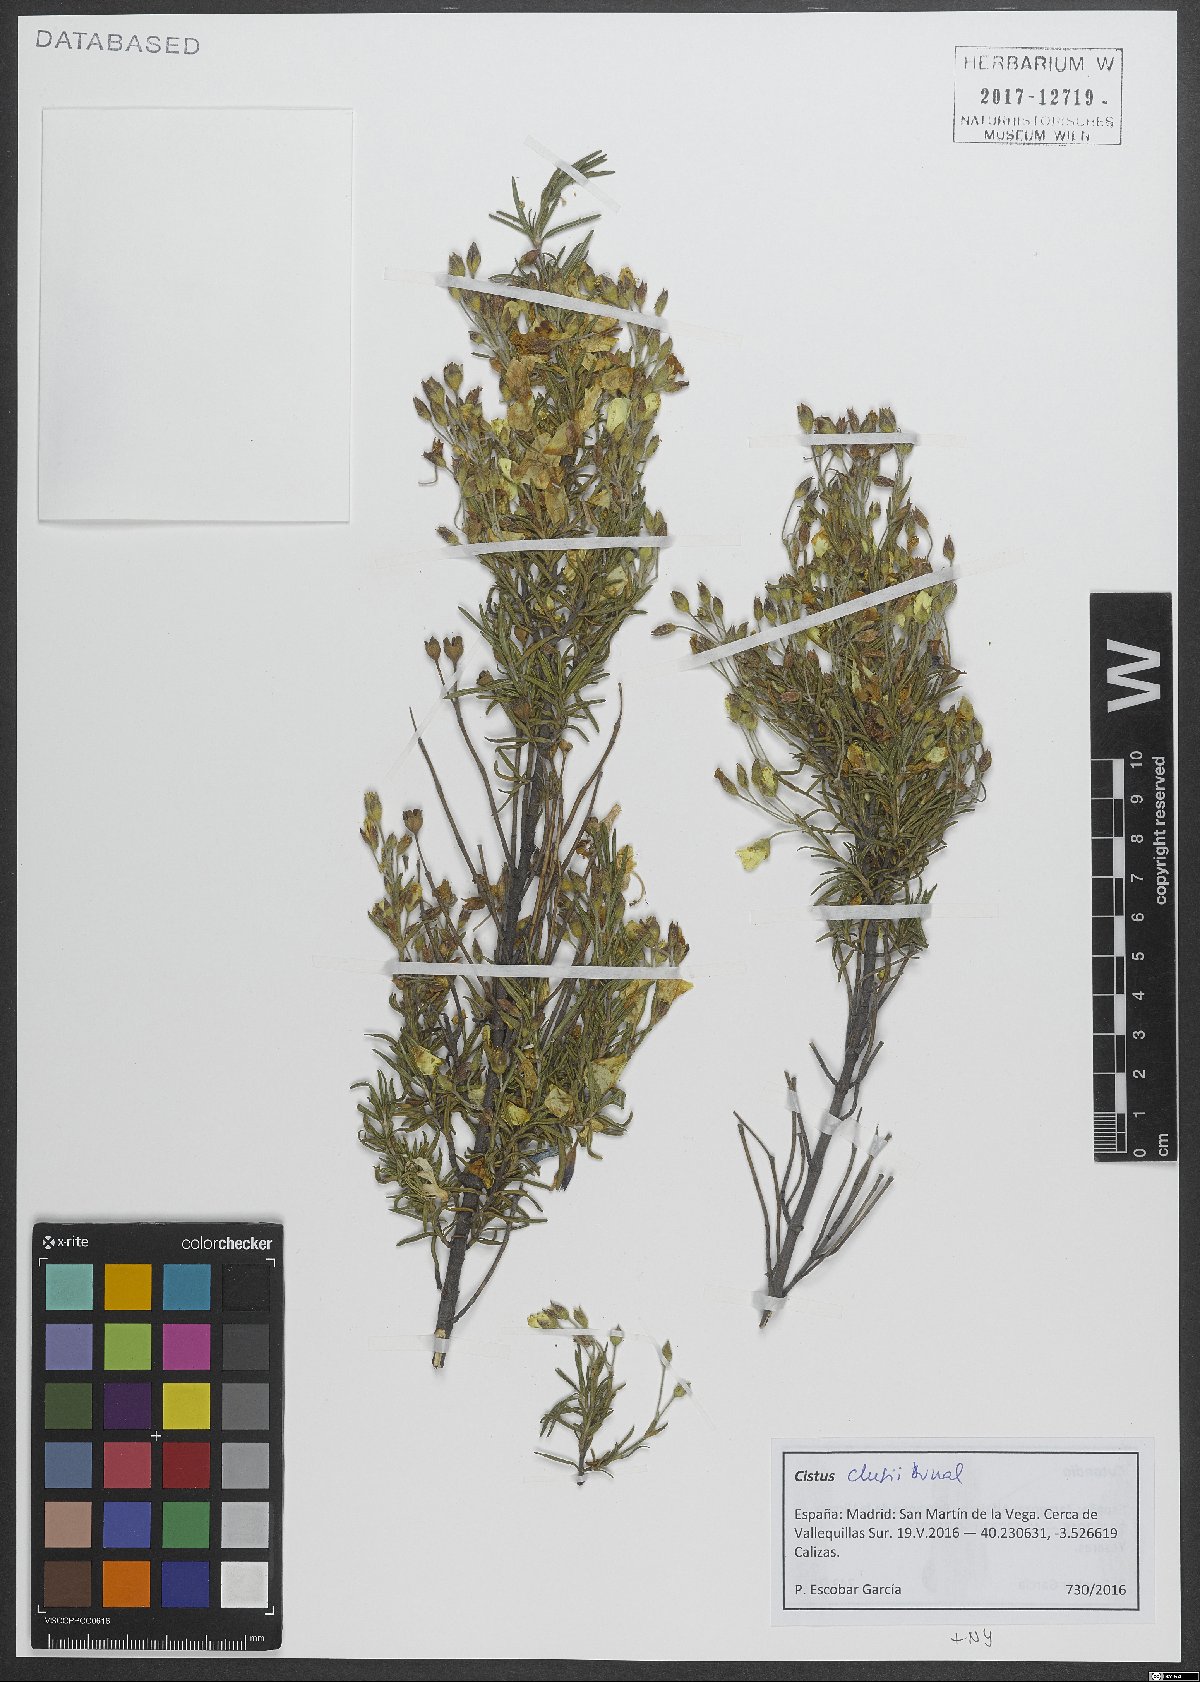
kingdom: Plantae
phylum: Tracheophyta
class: Magnoliopsida
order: Malvales
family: Cistaceae
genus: Cistus
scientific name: Cistus clusii
